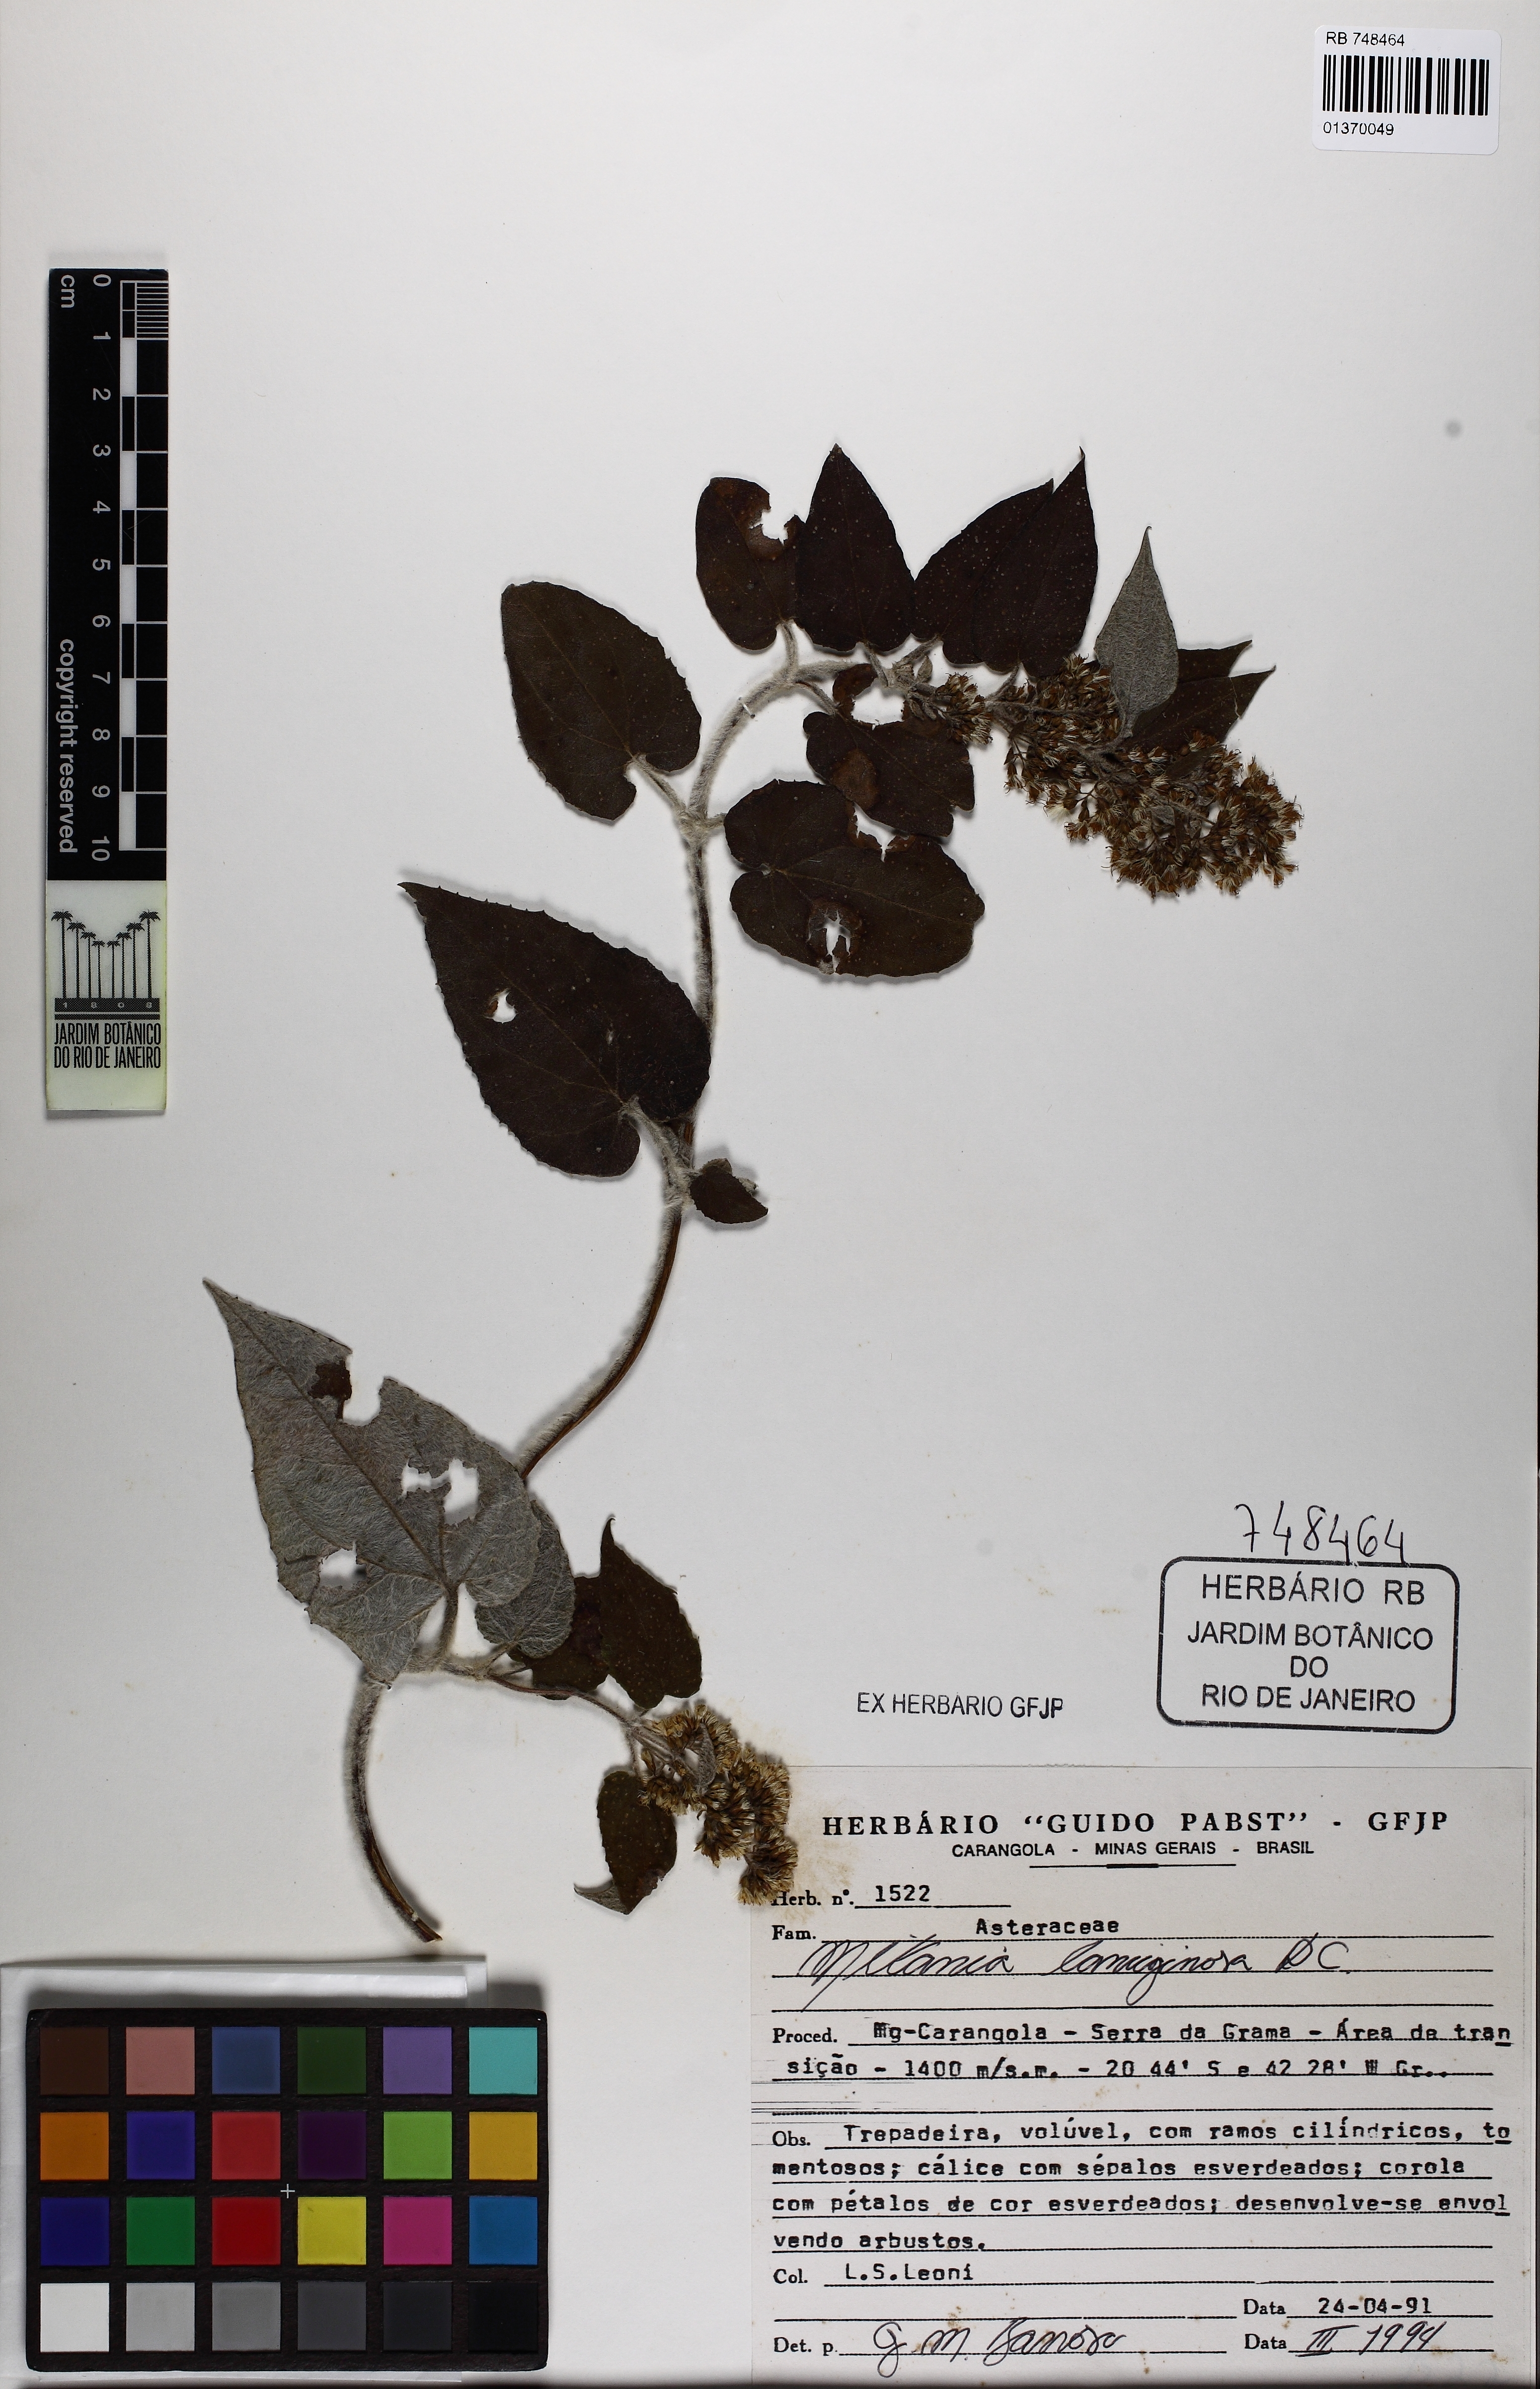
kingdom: Plantae
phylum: Tracheophyta
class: Magnoliopsida
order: Asterales
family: Asteraceae
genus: Mikania
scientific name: Mikania banisteriae
